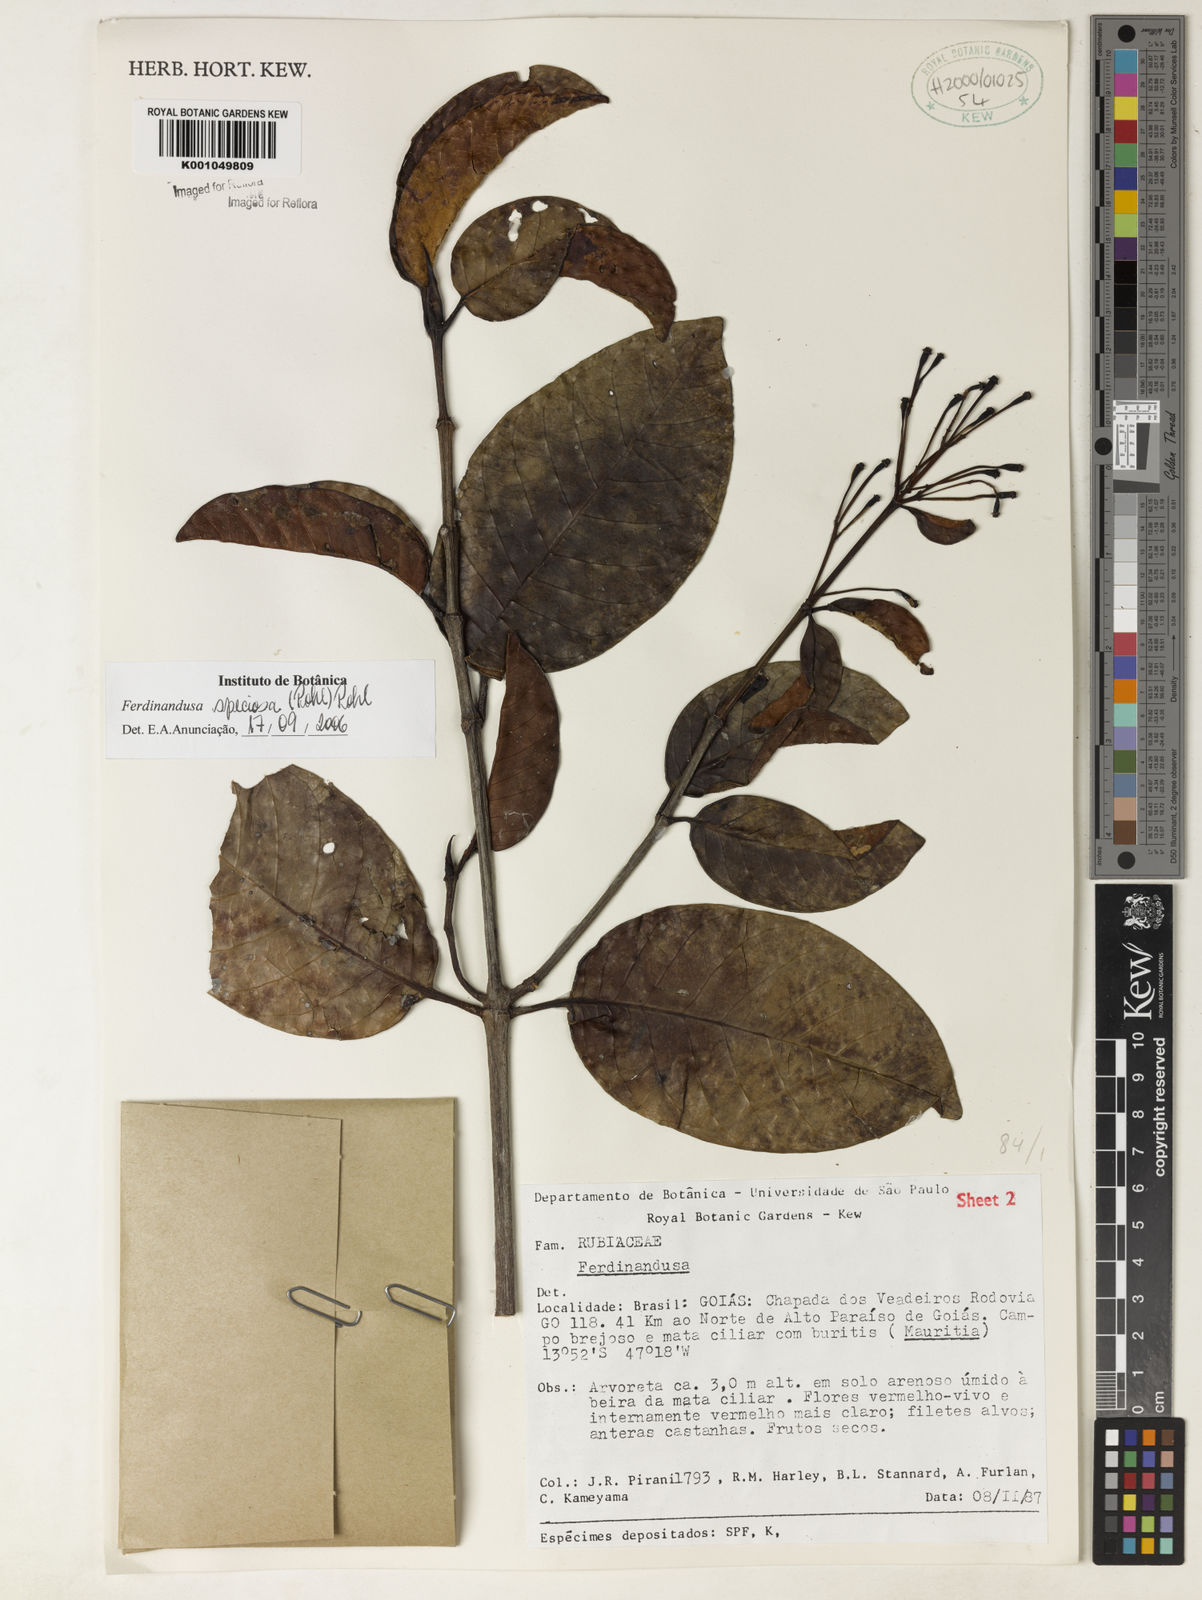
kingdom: Plantae
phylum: Tracheophyta
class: Magnoliopsida
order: Gentianales
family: Rubiaceae
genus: Ferdinandusa
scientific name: Ferdinandusa speciosa
